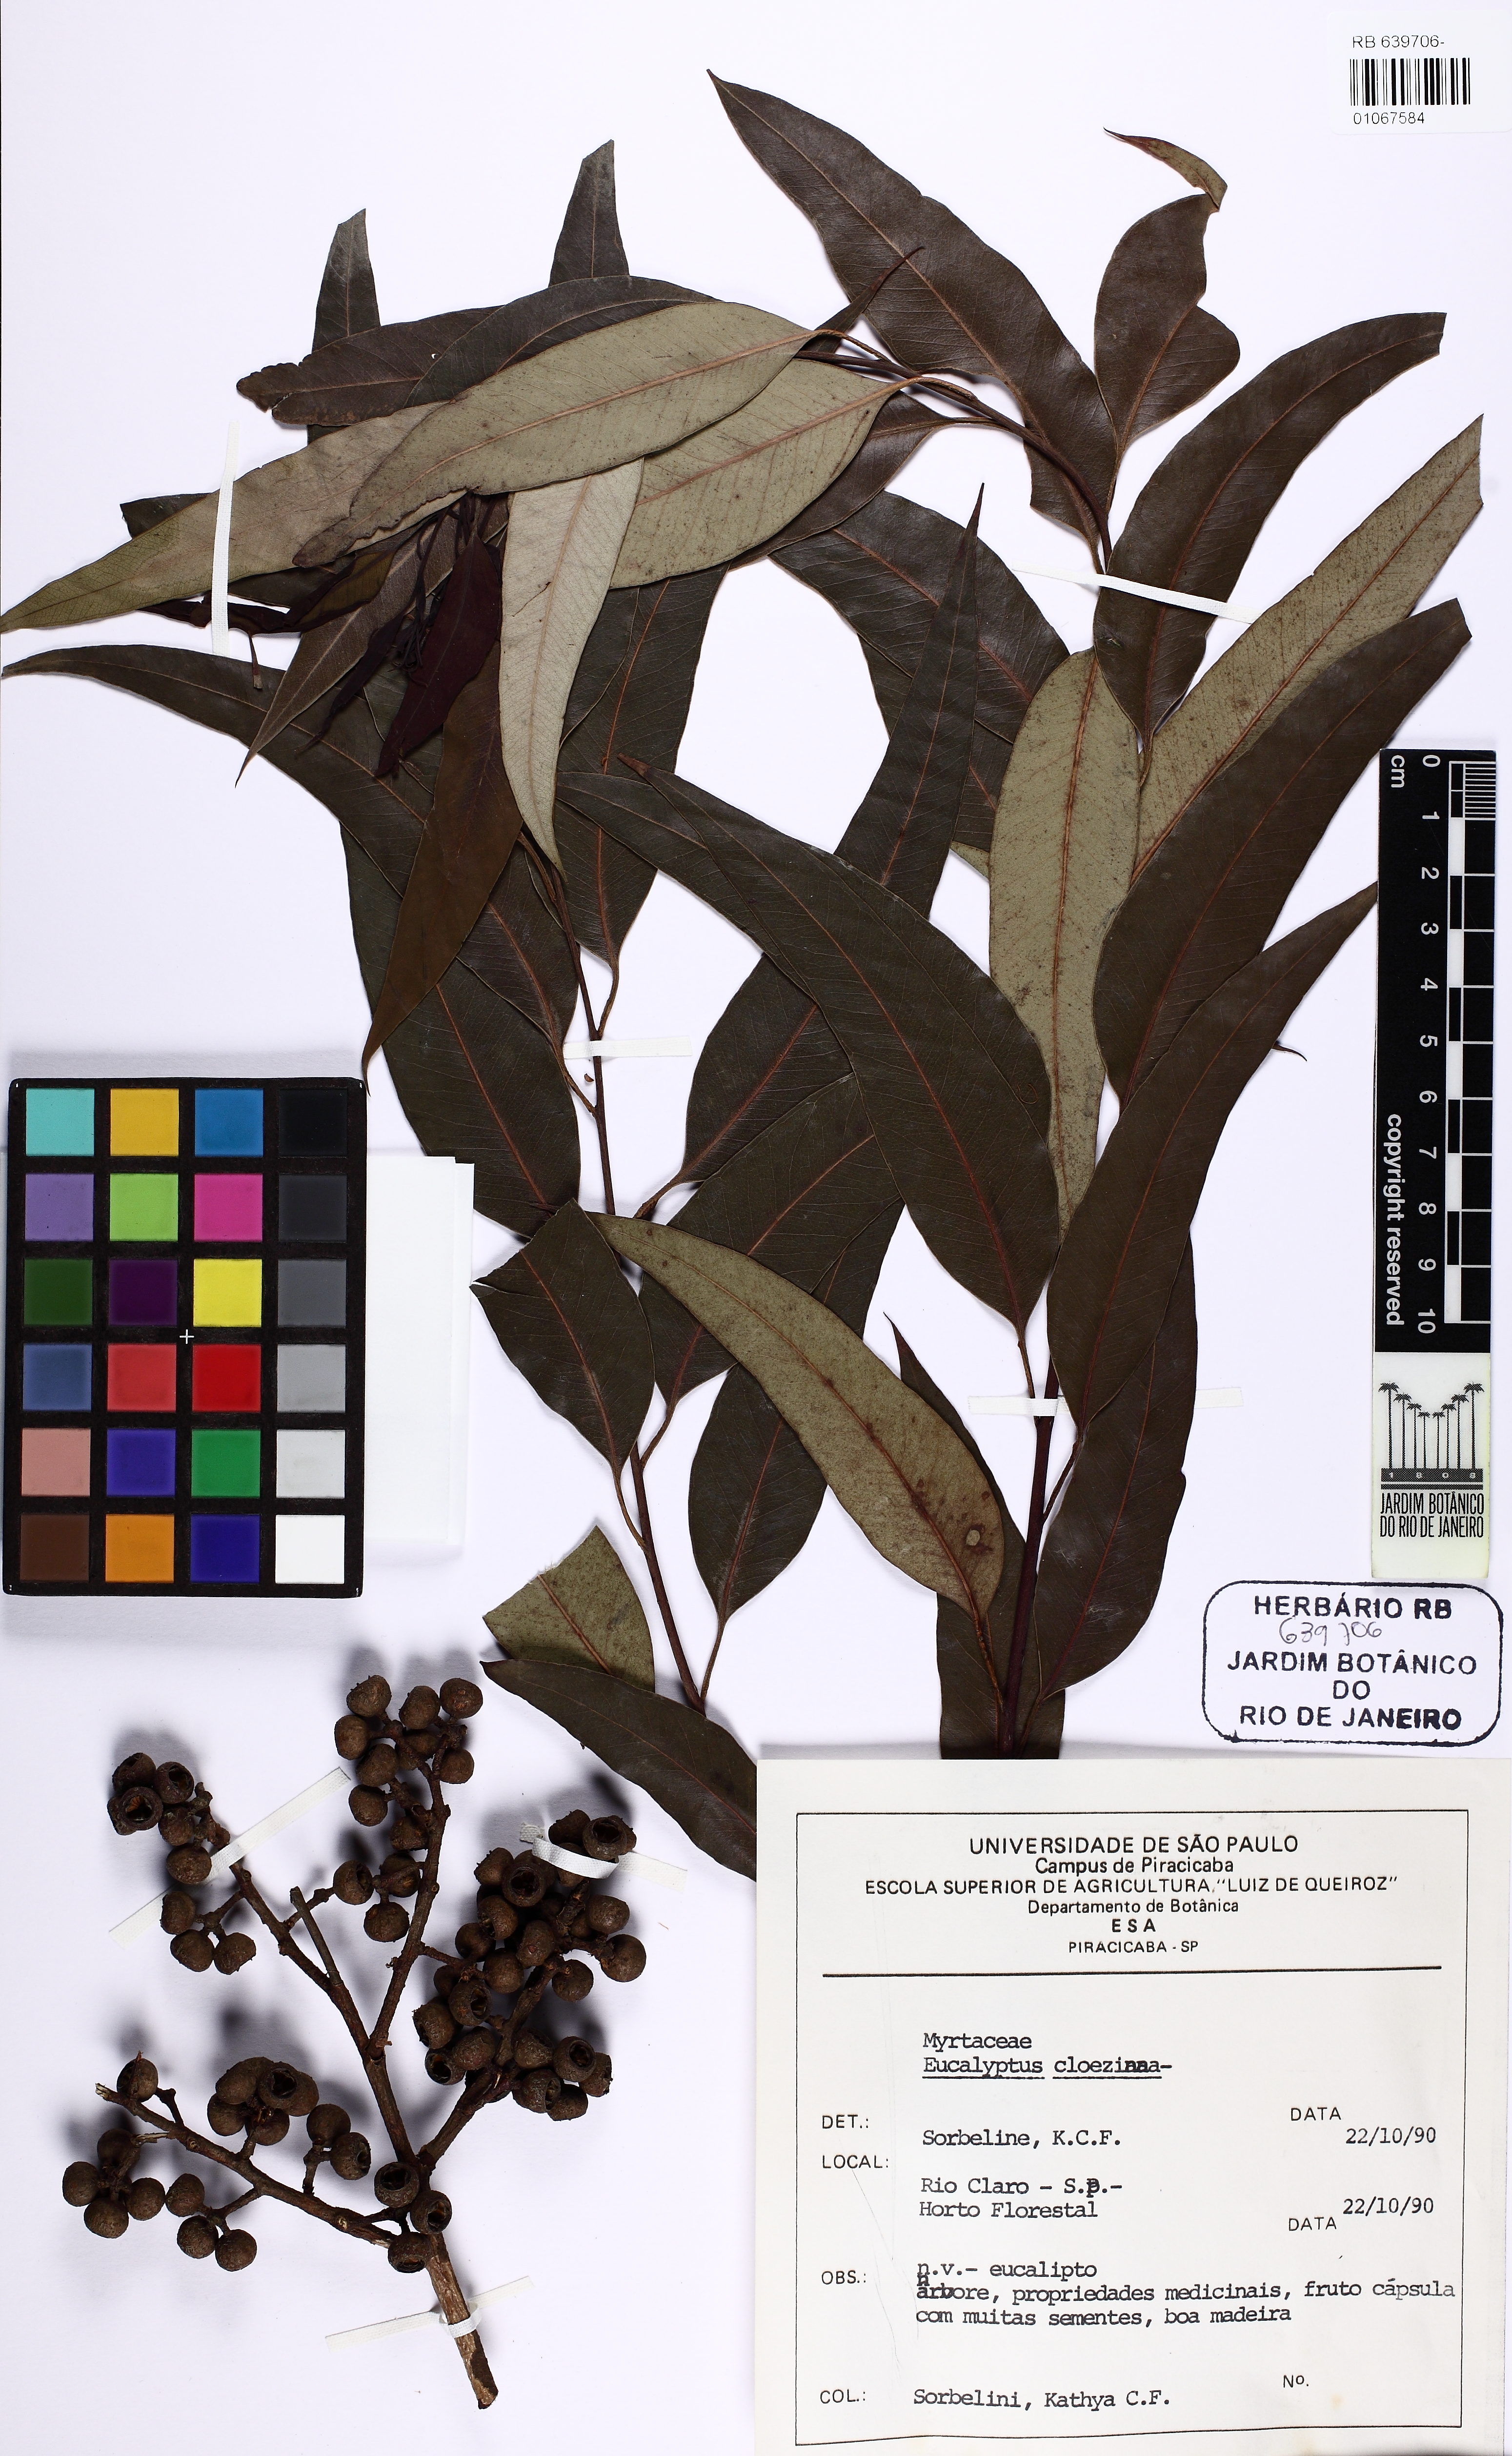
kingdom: Plantae
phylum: Tracheophyta
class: Magnoliopsida
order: Myrtales
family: Myrtaceae
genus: Eucalyptus
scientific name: Eucalyptus cloeziana
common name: Gympie messmate
